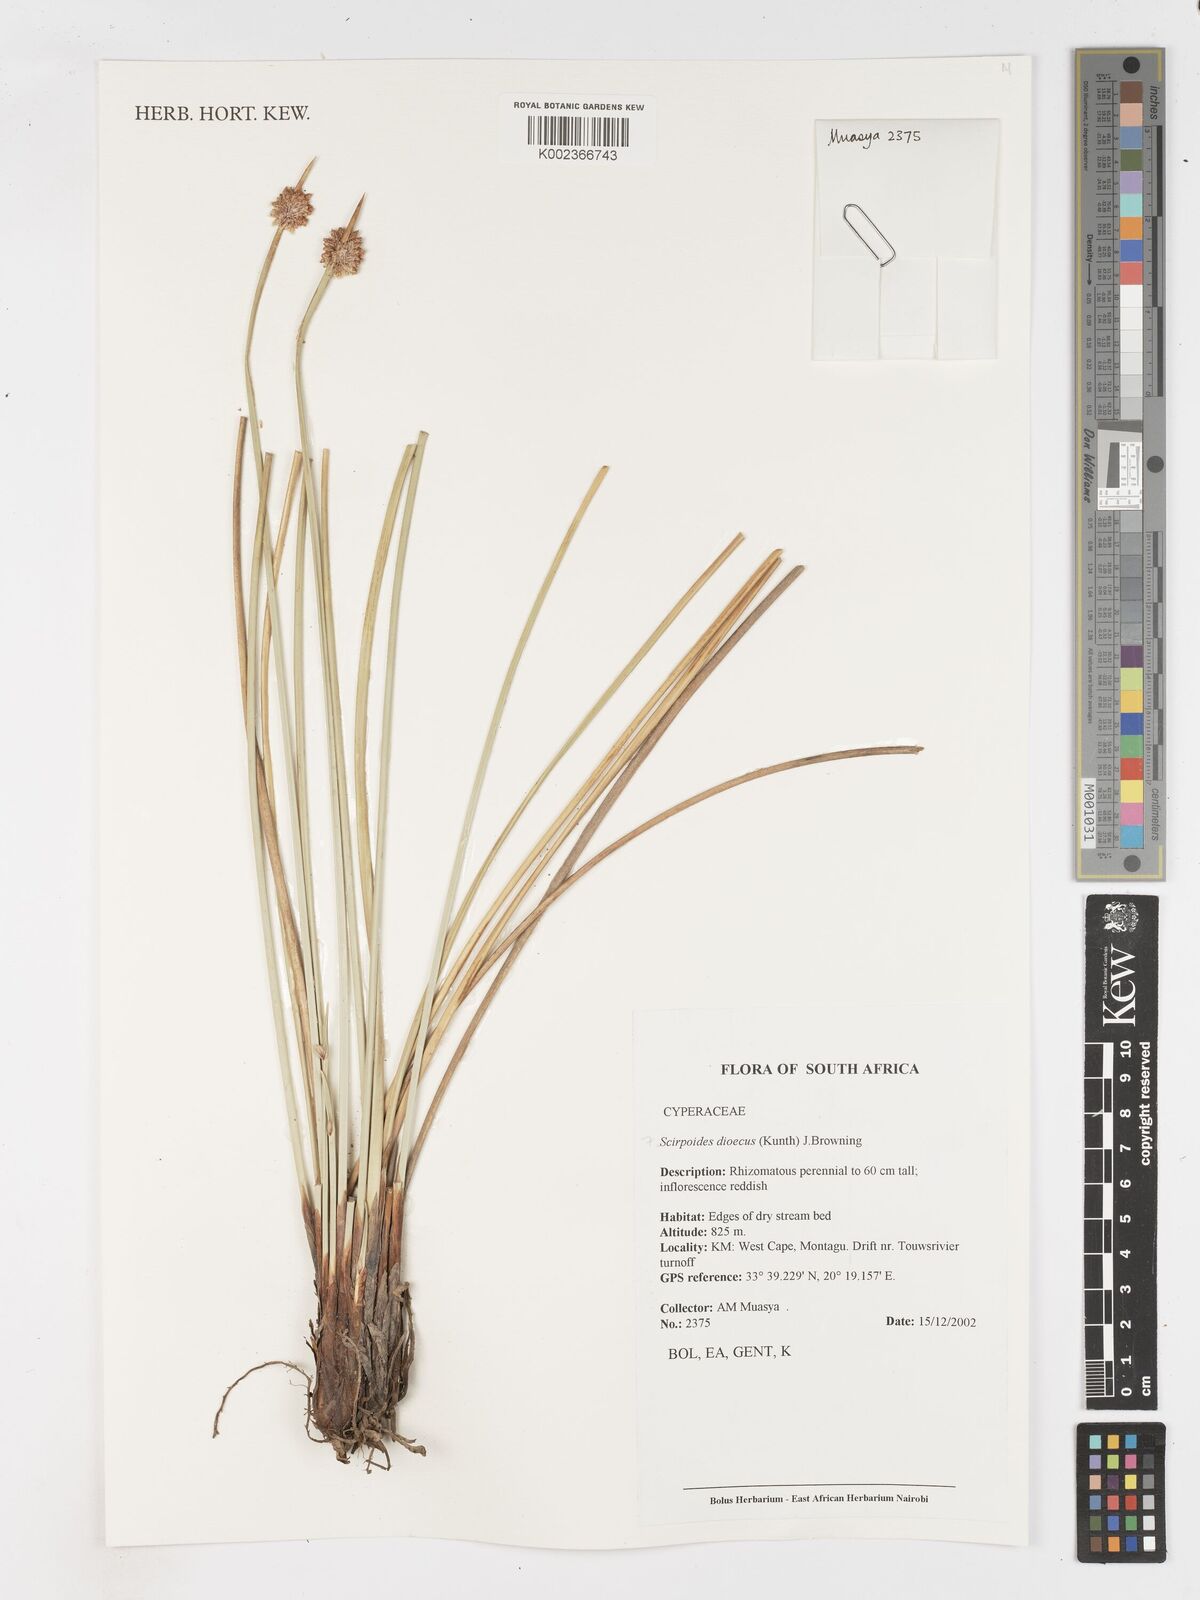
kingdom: Plantae
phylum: Tracheophyta
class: Liliopsida
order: Poales
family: Cyperaceae
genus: Afroscirpoides
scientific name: Afroscirpoides dioeca
